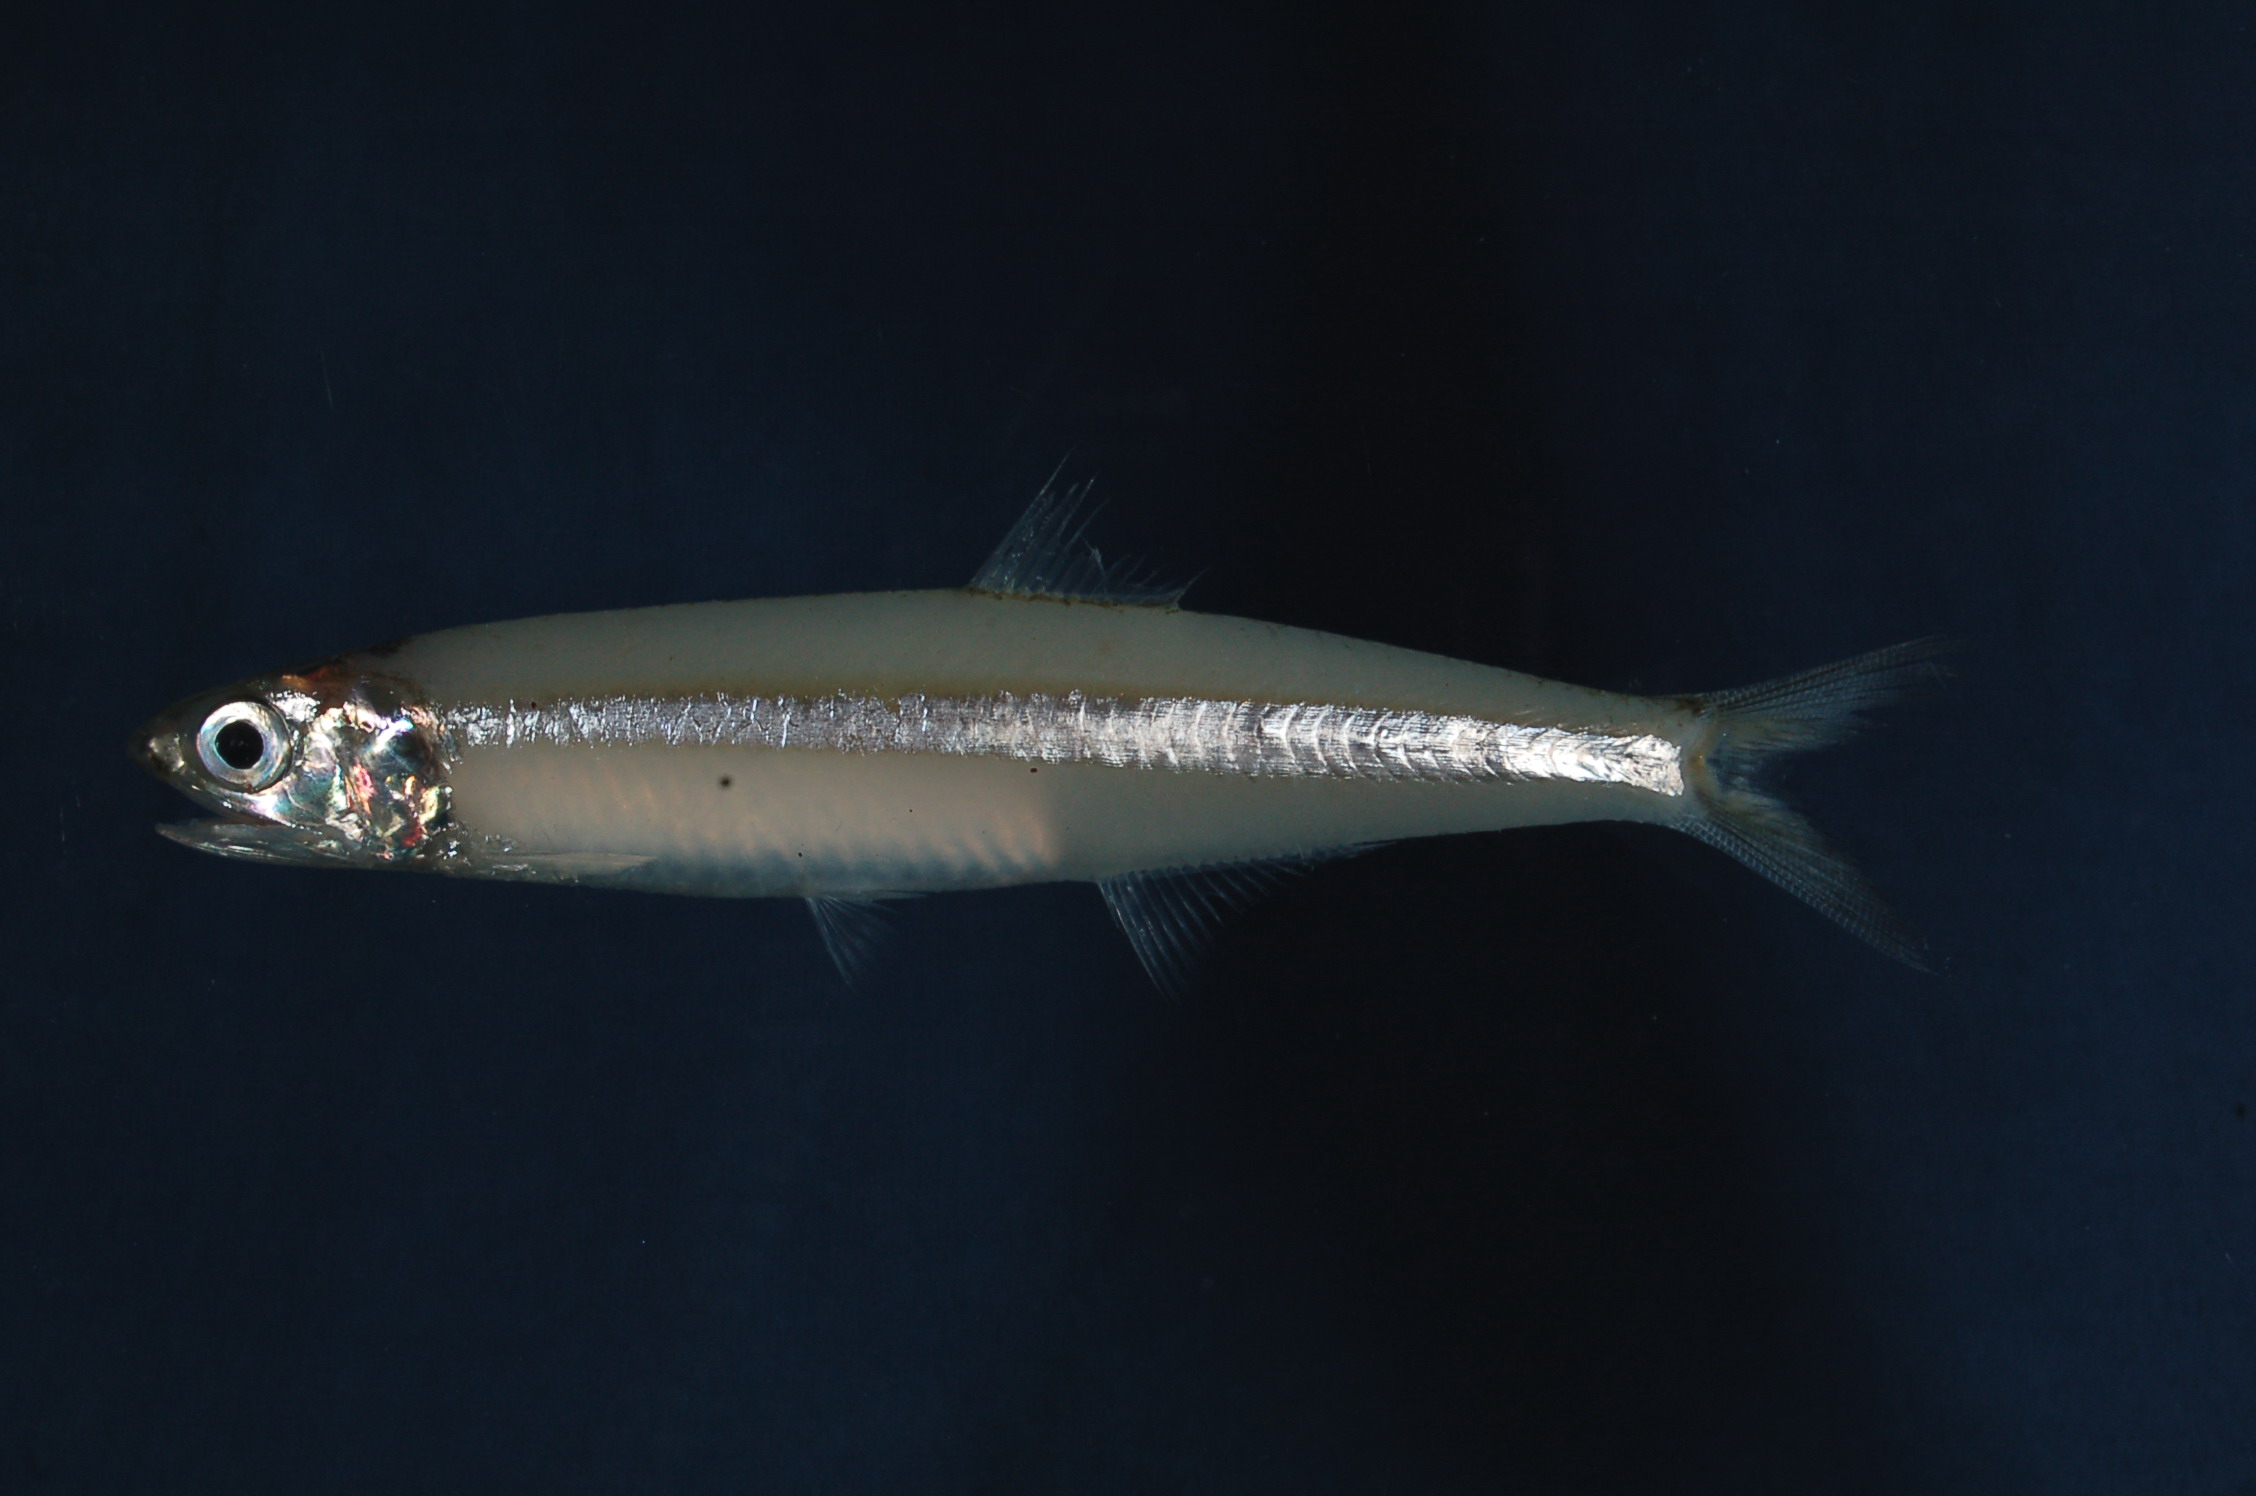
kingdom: Animalia
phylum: Chordata
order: Clupeiformes
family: Engraulidae
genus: Stolephorus
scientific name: Stolephorus indicus
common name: Indian anchovy
